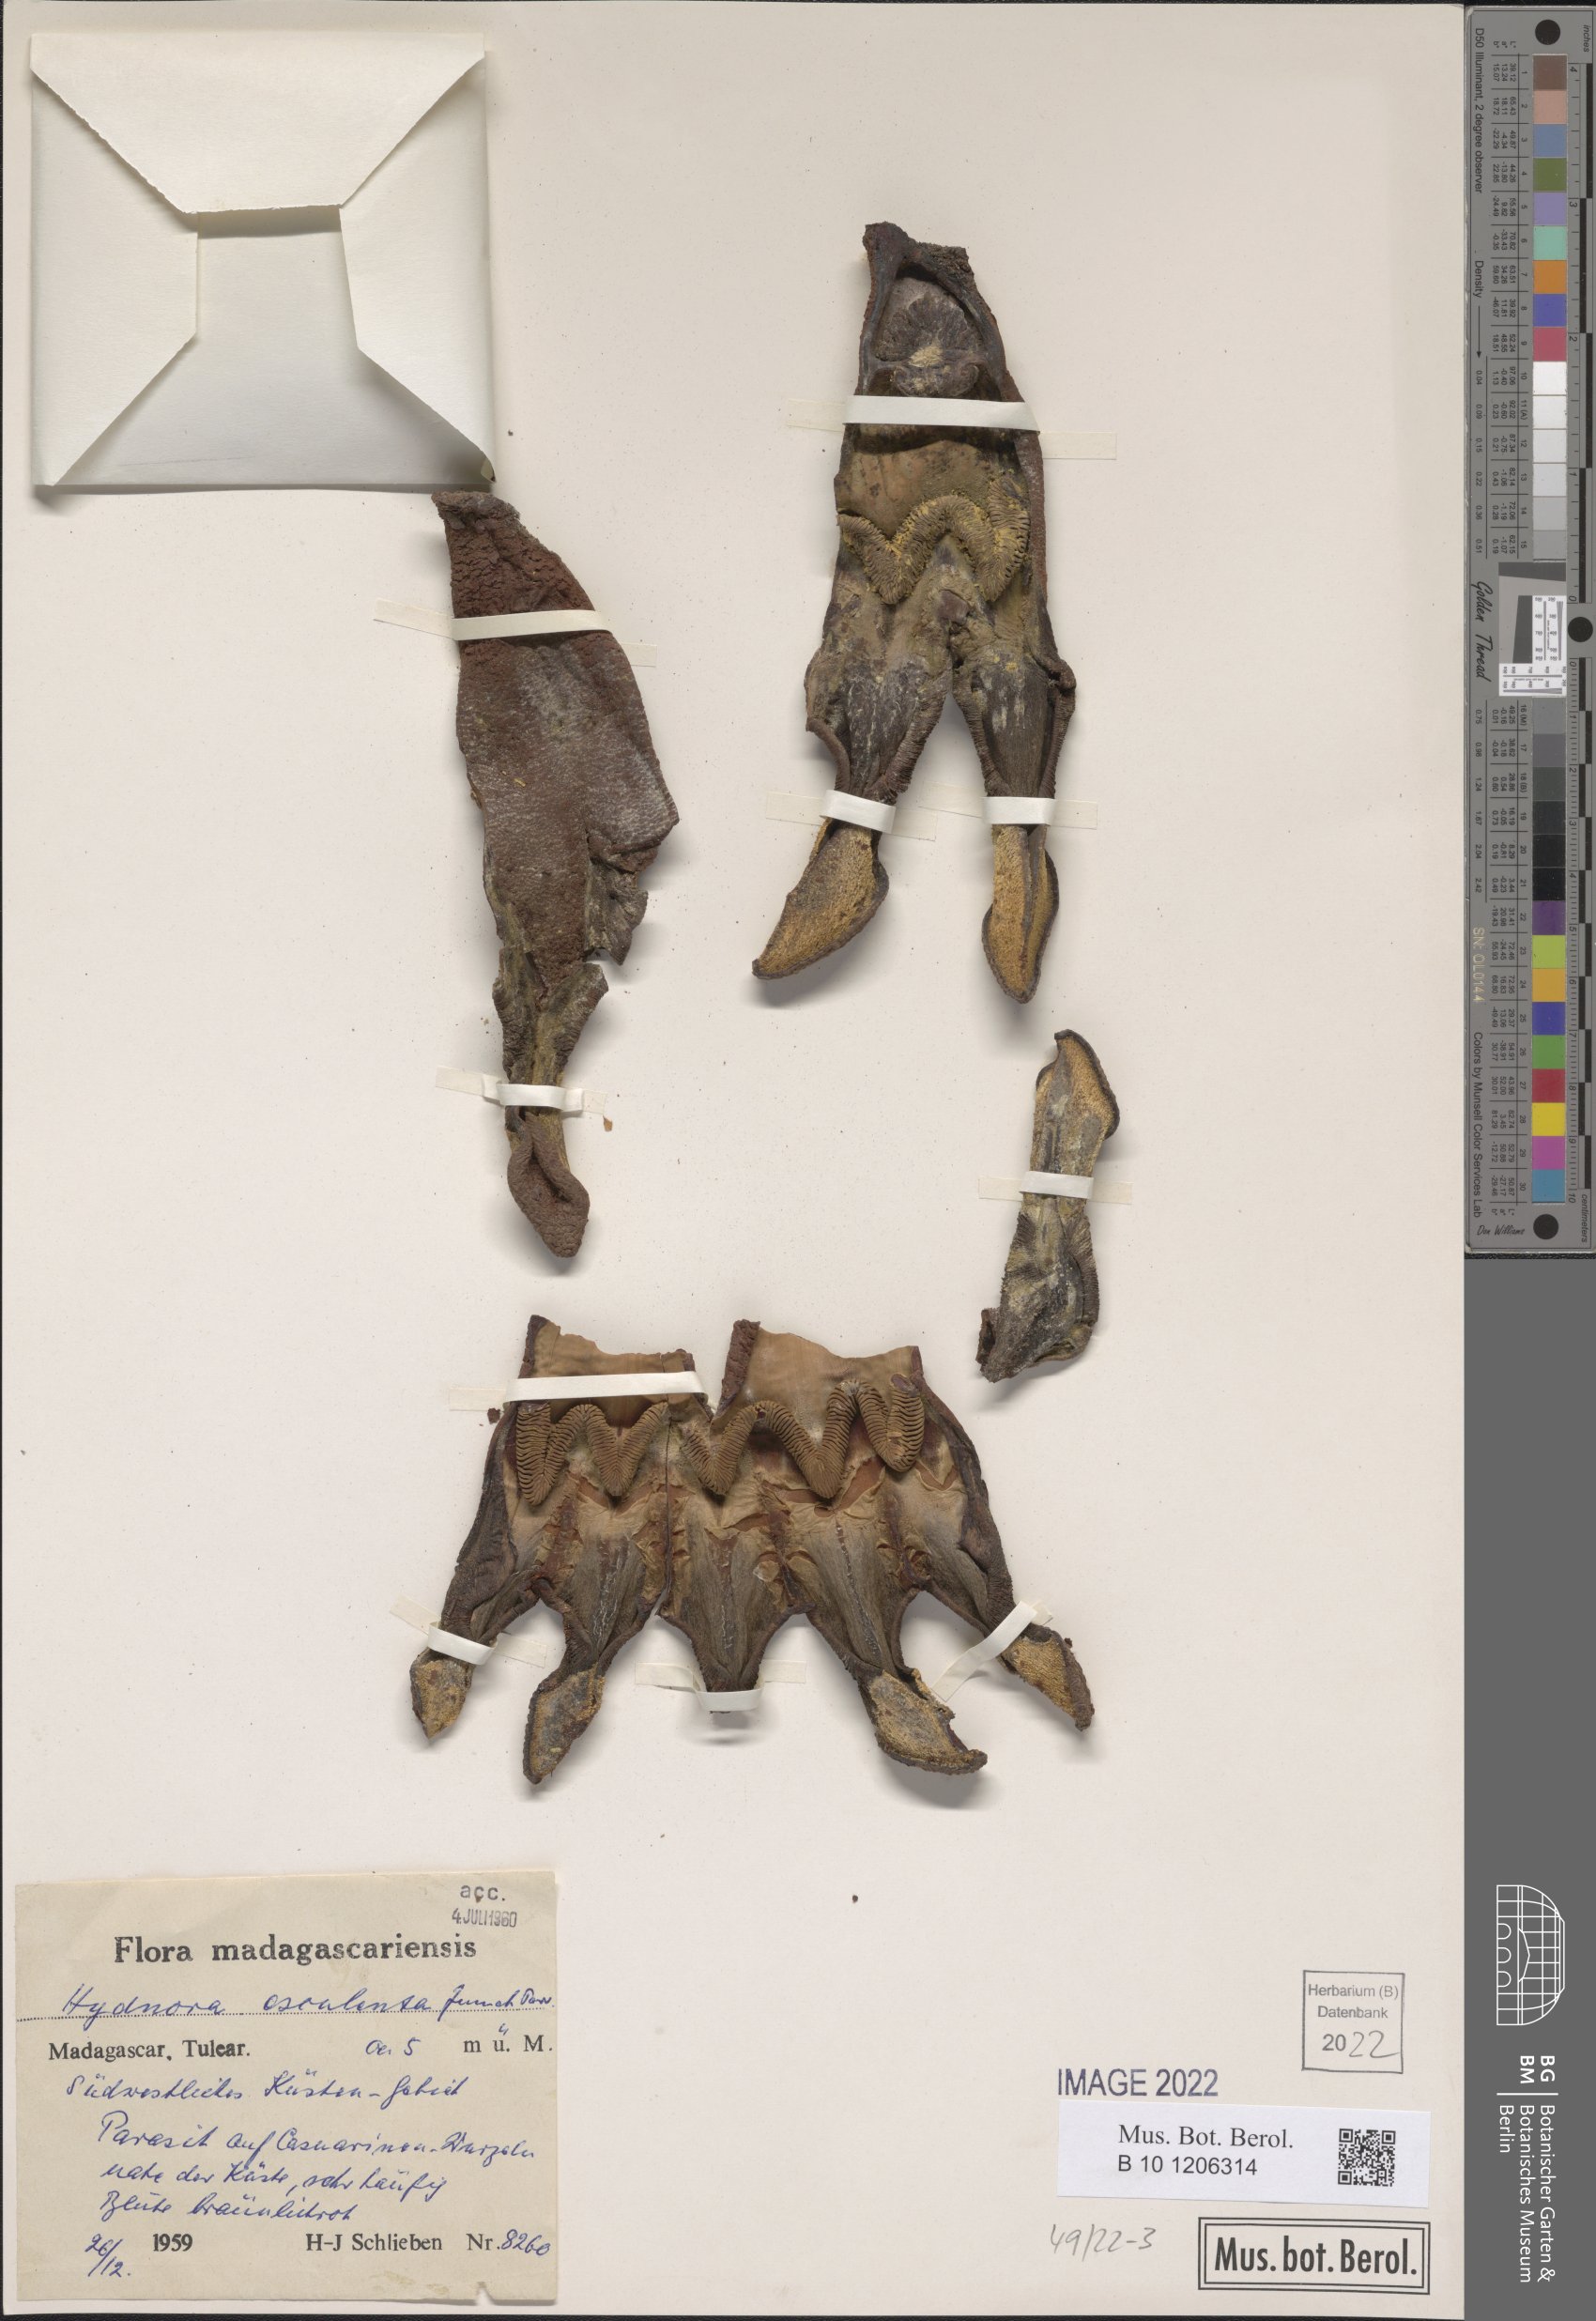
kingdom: Plantae
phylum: Tracheophyta
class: Magnoliopsida
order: Piperales
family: Hydnoraceae
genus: Hydnora
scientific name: Hydnora esculenta
